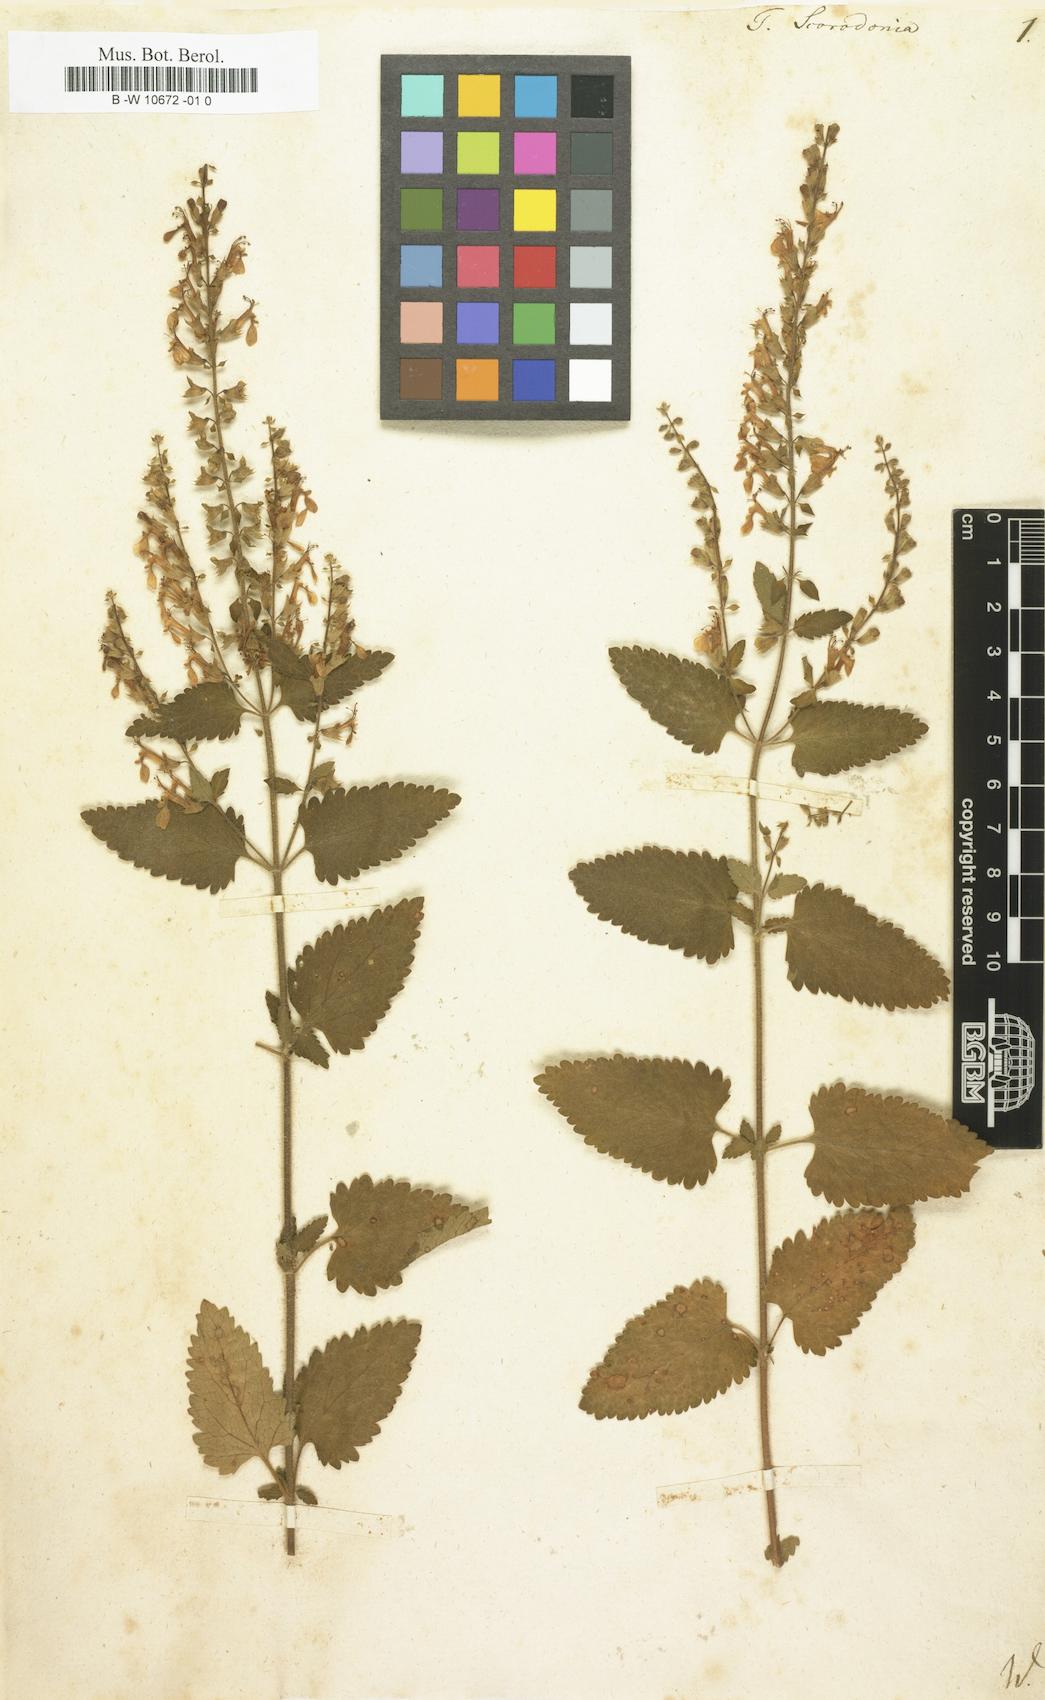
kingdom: Plantae
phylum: Tracheophyta
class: Magnoliopsida
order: Lamiales
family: Lamiaceae
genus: Teucrium
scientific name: Teucrium scorodonia
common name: Woodland germander
